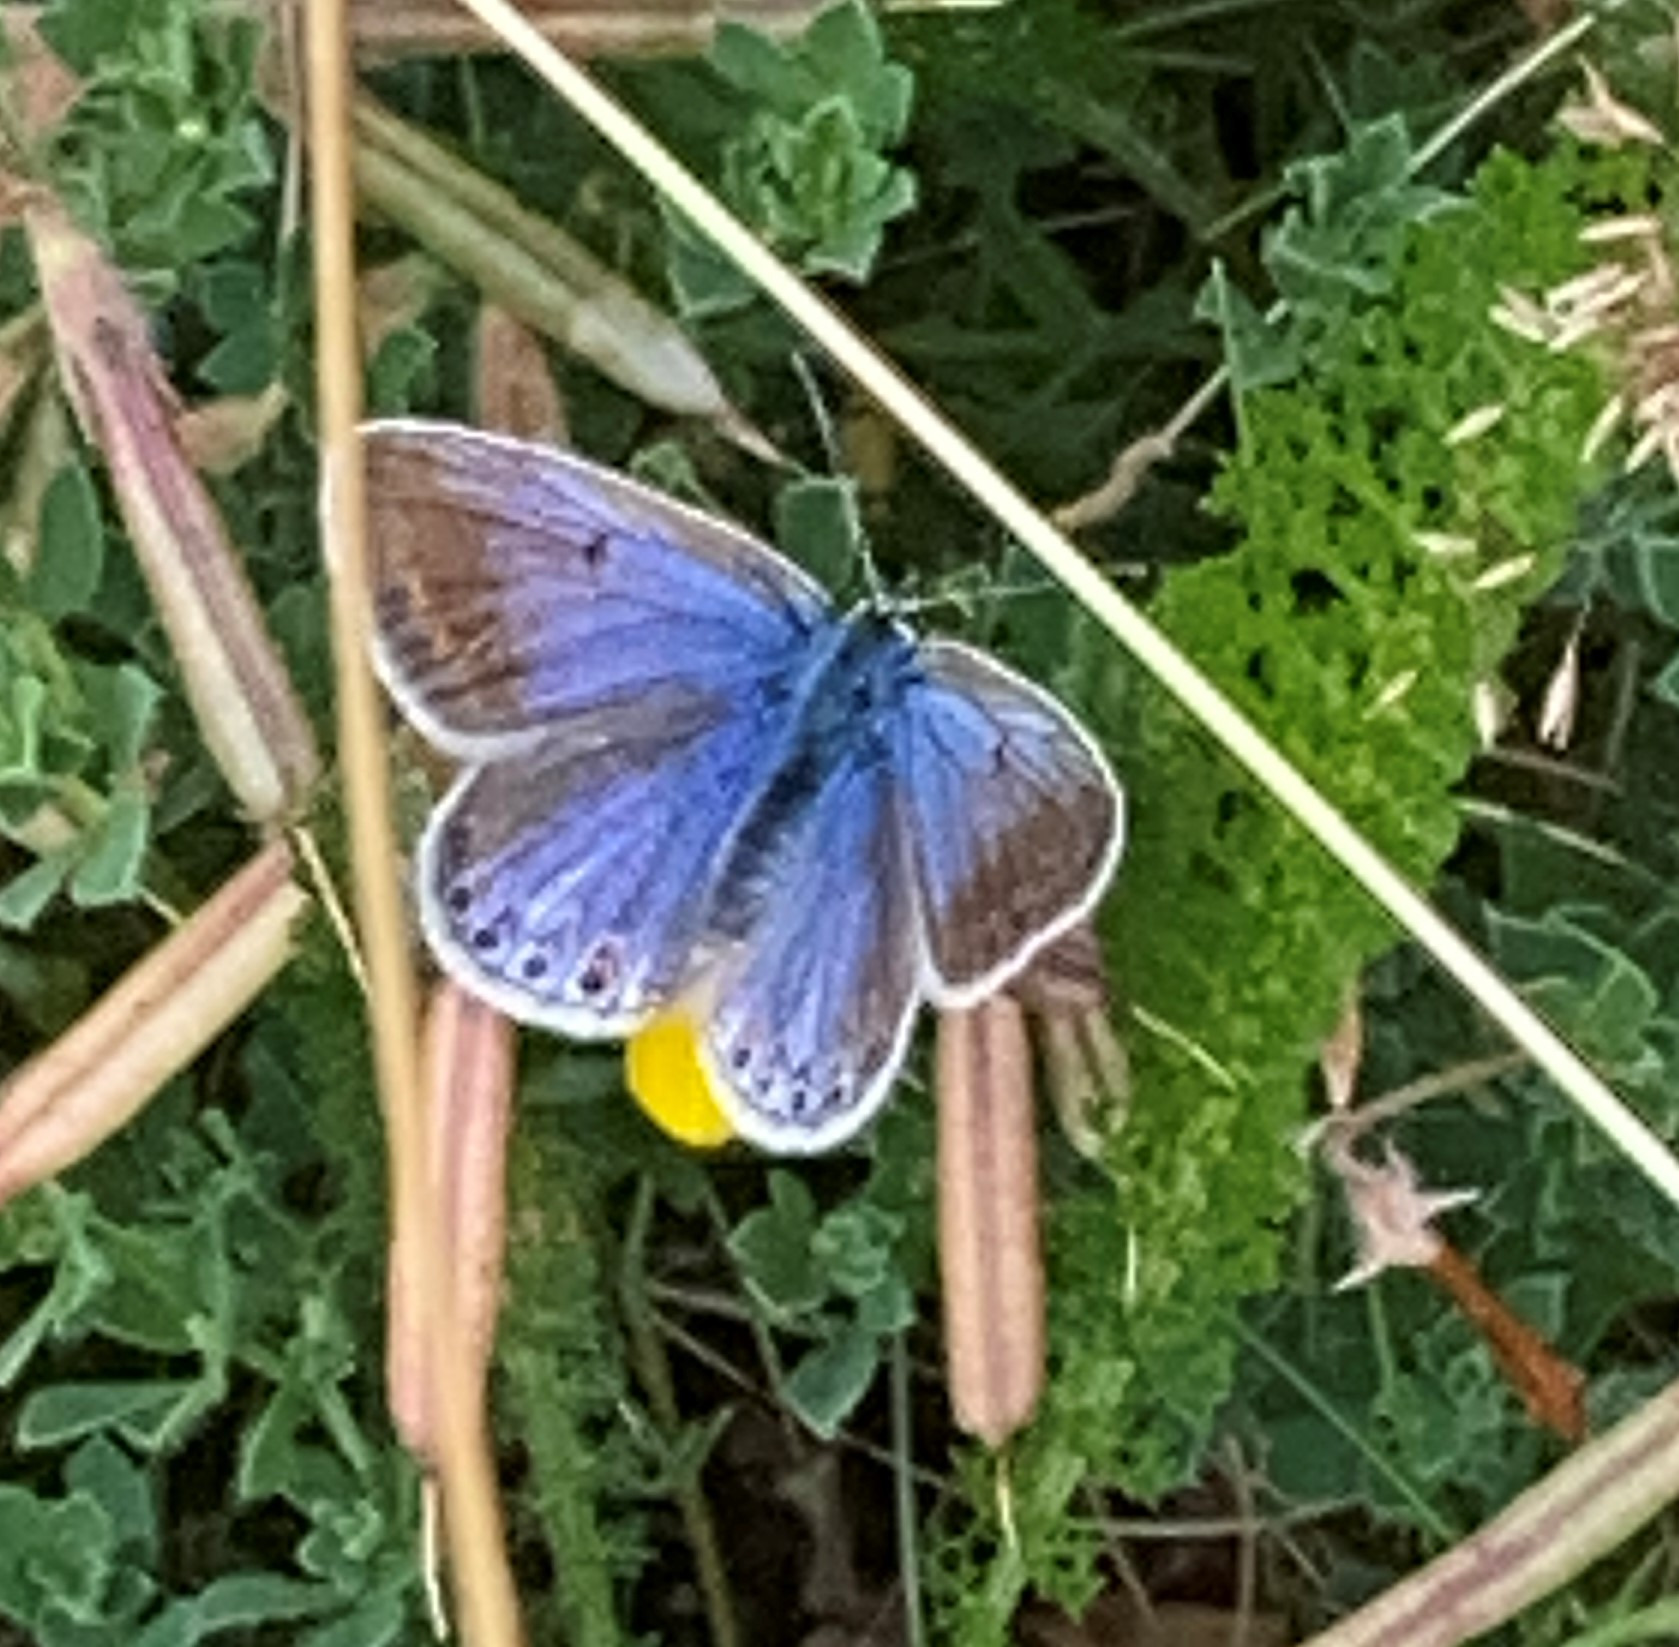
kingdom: Animalia
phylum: Arthropoda
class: Insecta
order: Lepidoptera
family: Lycaenidae
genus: Polyommatus
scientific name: Polyommatus icarus
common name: Almindelig blåfugl
